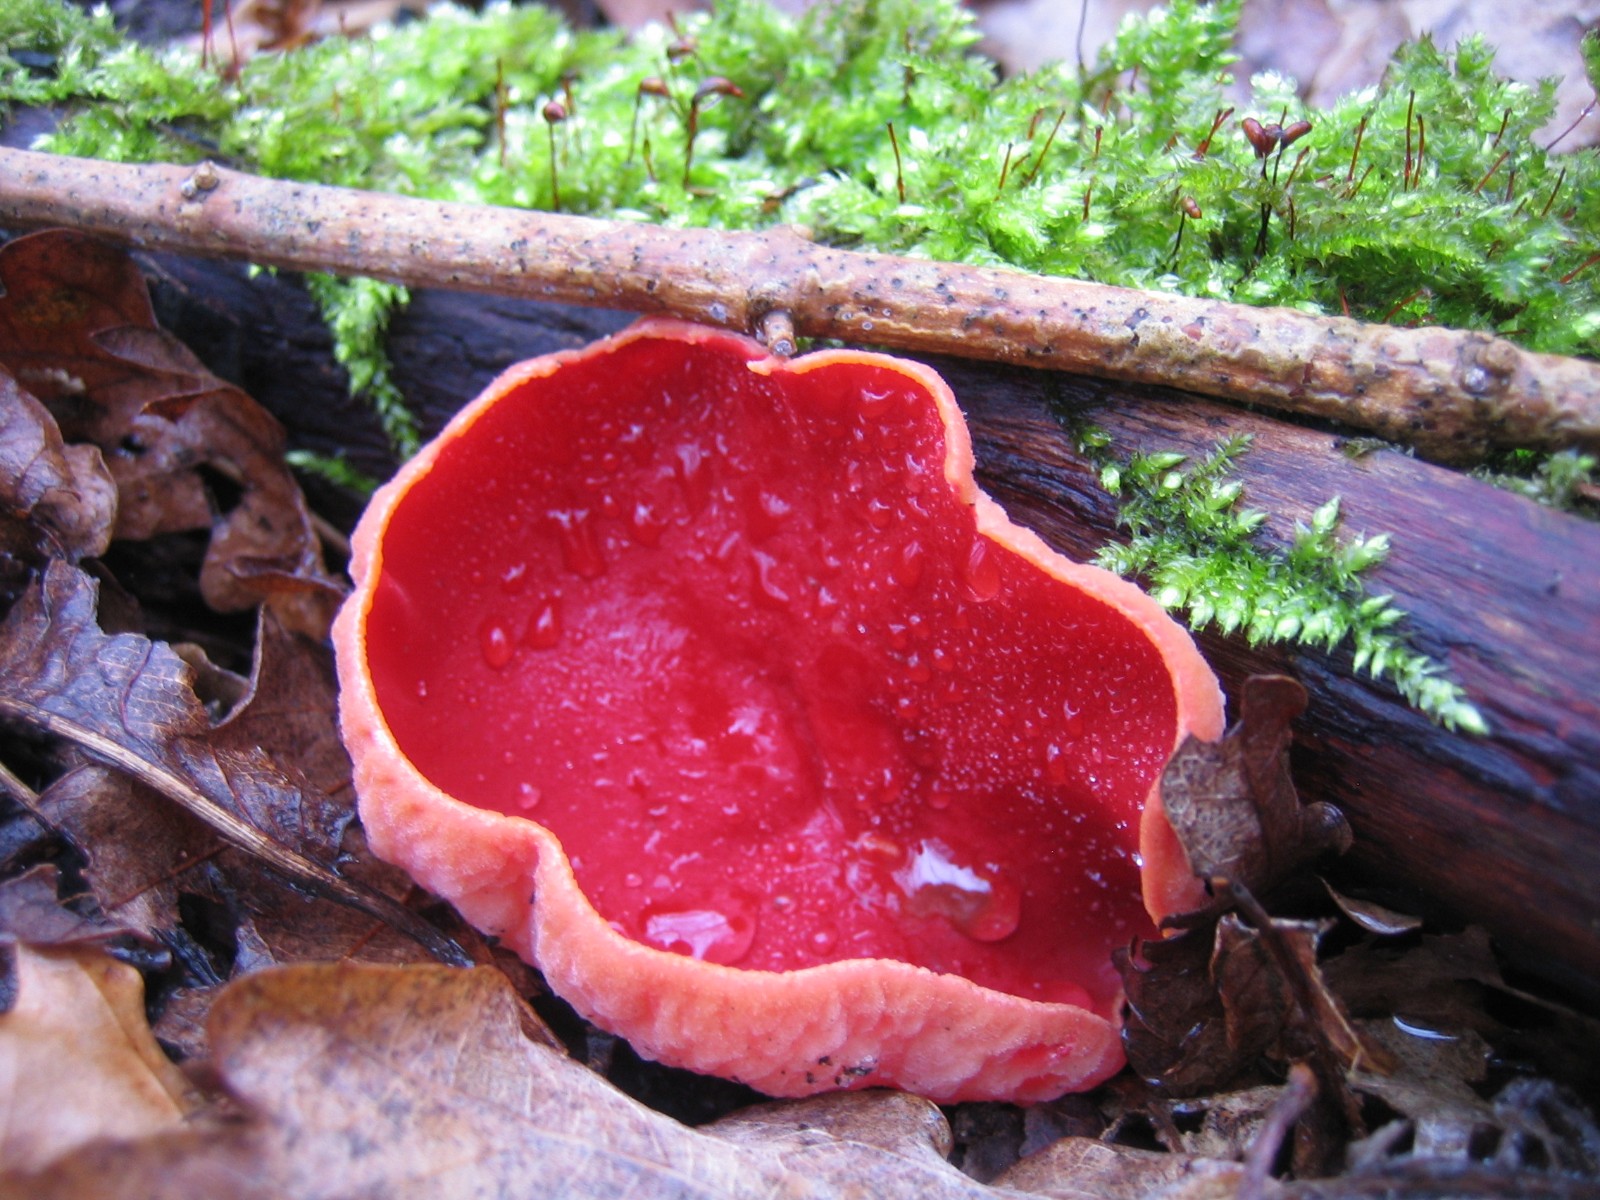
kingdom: Fungi
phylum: Ascomycota
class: Pezizomycetes
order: Pezizales
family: Sarcoscyphaceae
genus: Sarcoscypha
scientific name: Sarcoscypha austriaca
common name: krølhåret pragtbæger
